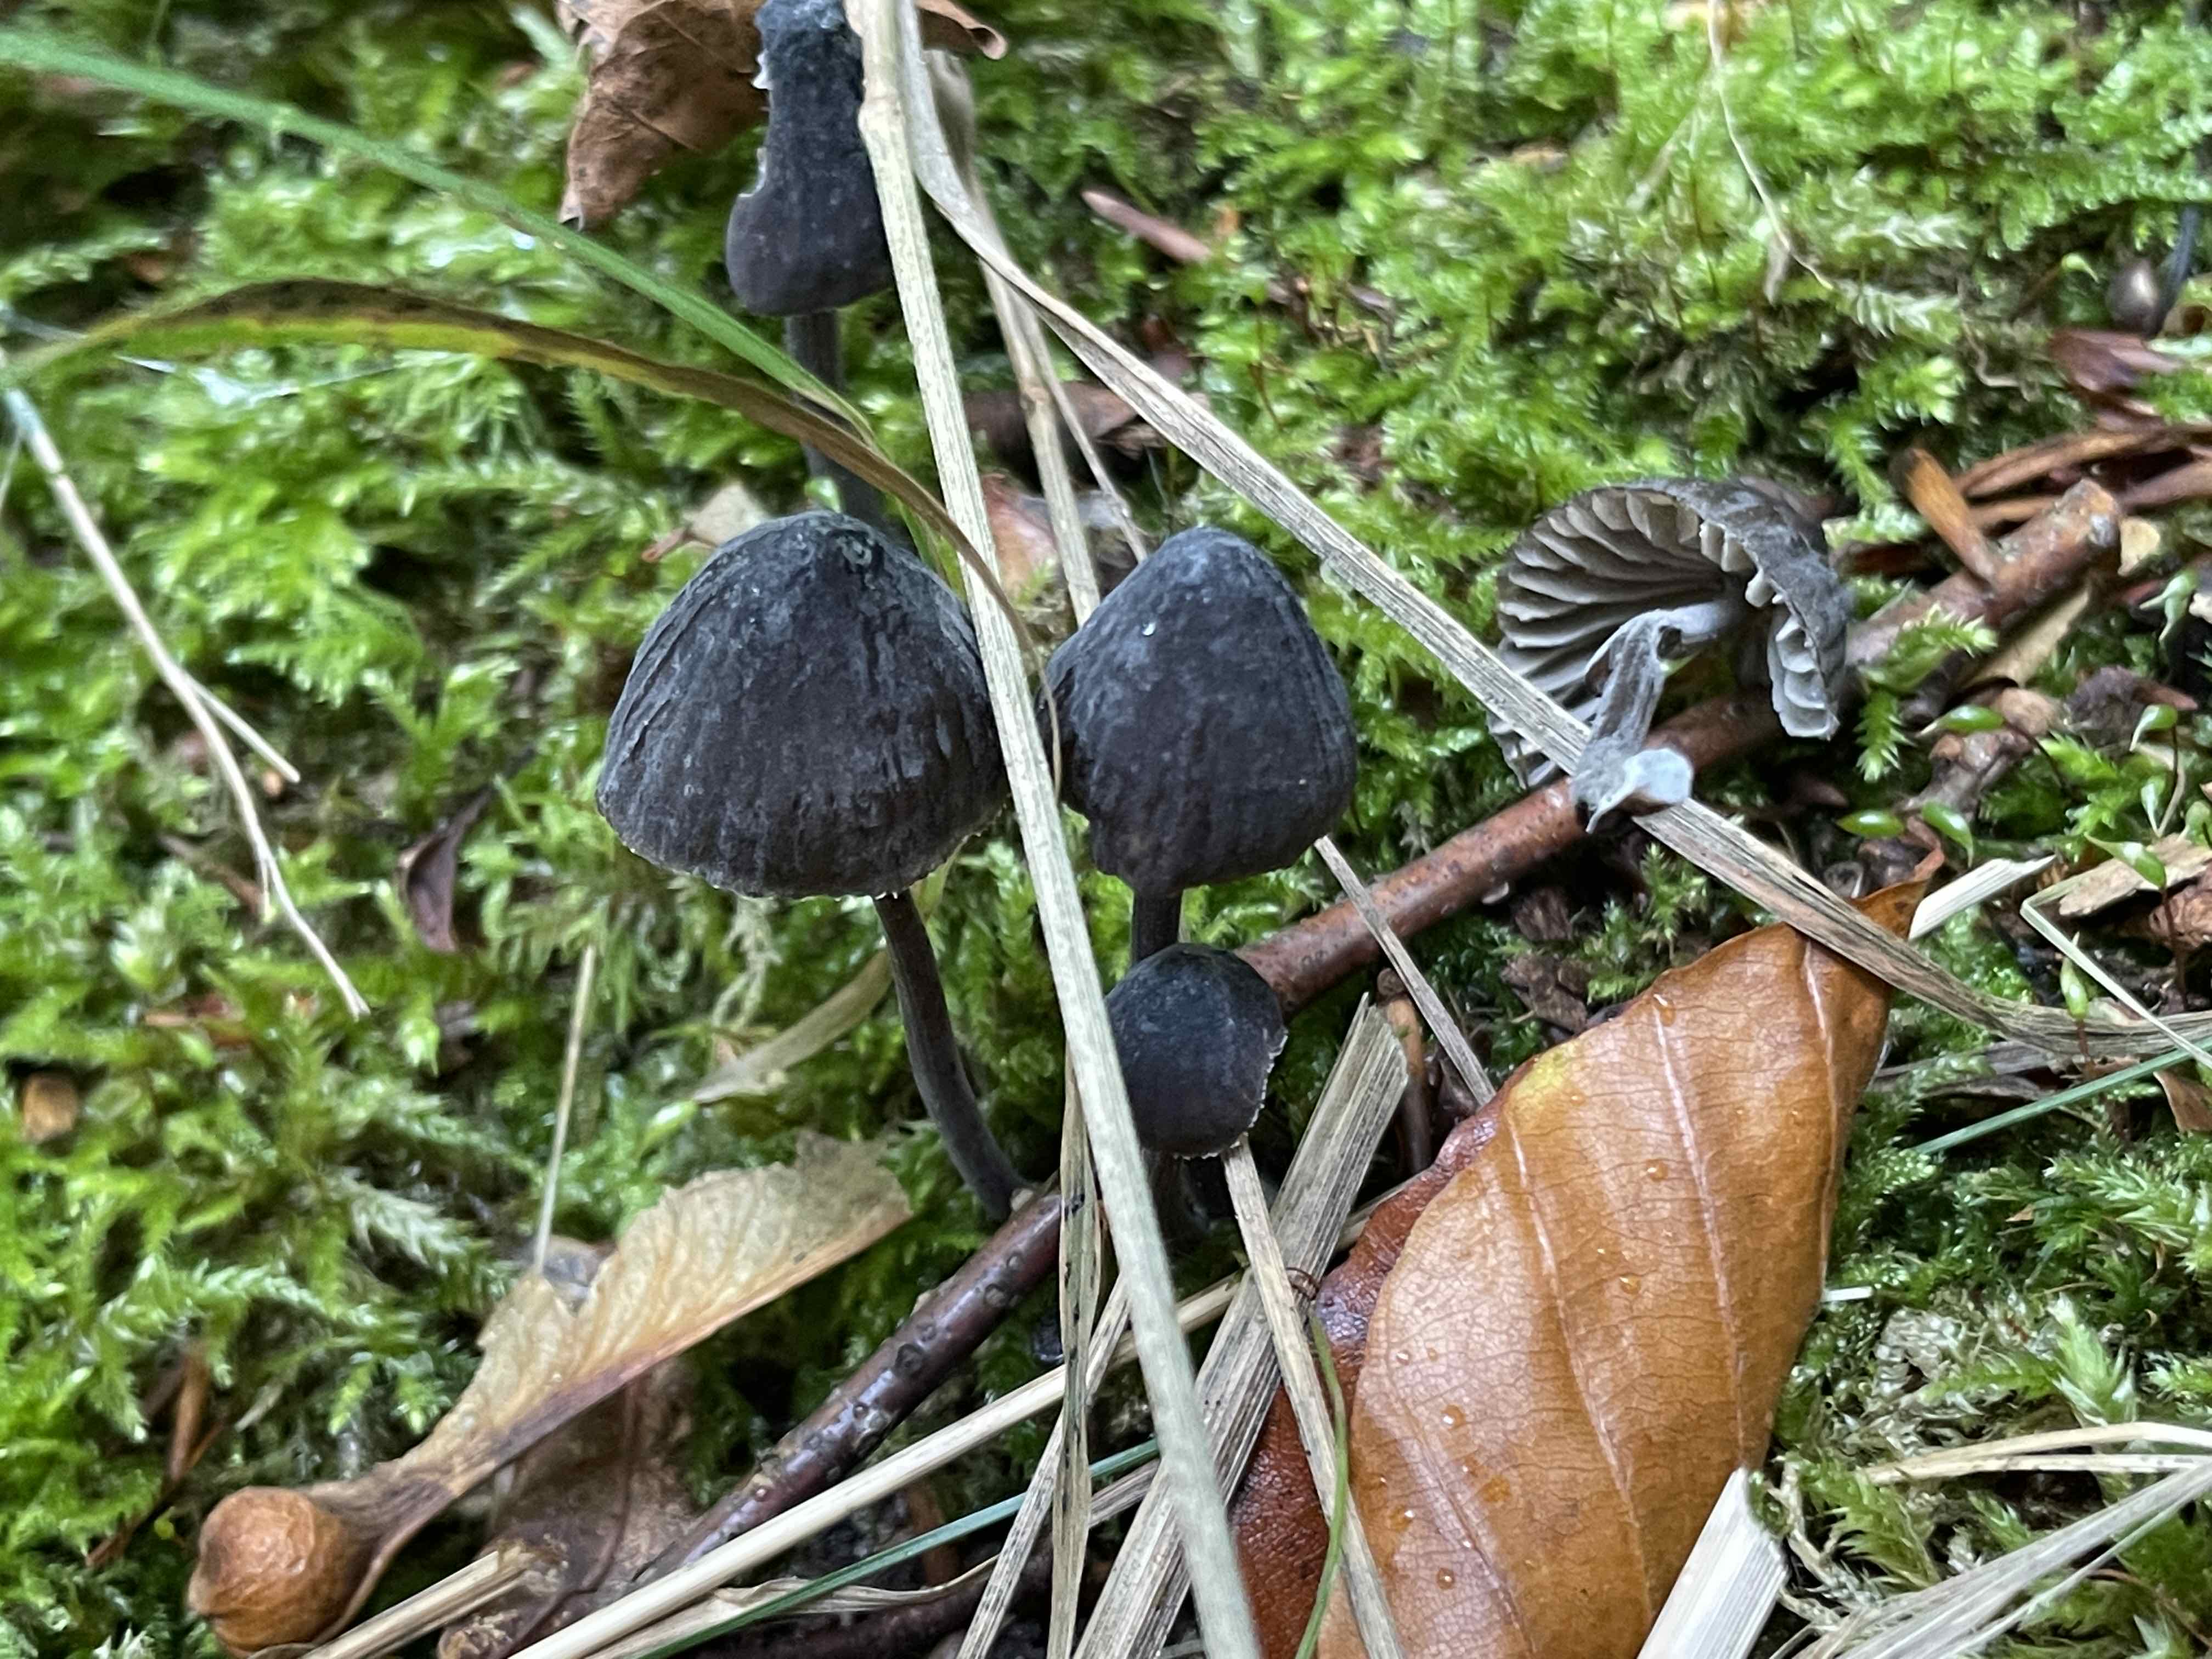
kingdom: Fungi
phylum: Basidiomycota
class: Agaricomycetes
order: Agaricales
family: Mycenaceae
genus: Mycena
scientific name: Mycena galopus
